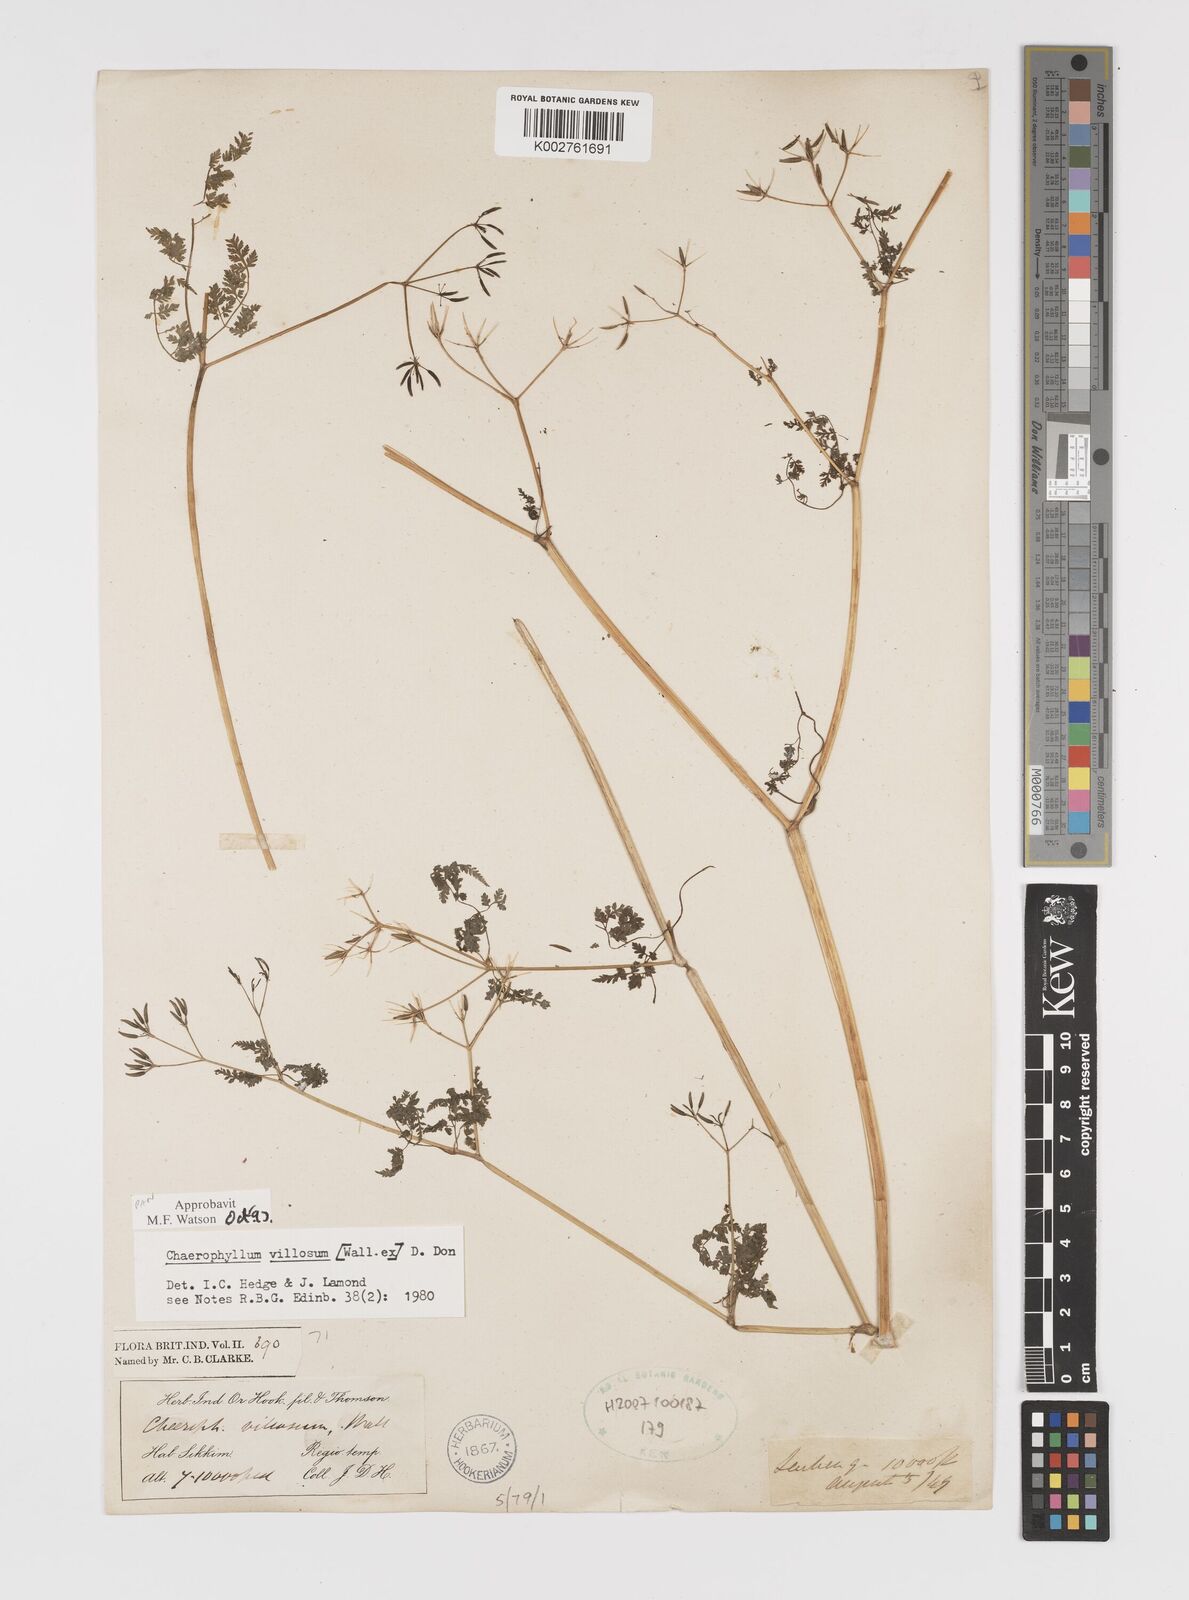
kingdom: Plantae
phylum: Tracheophyta
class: Magnoliopsida
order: Apiales
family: Apiaceae
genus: Chaerophyllum
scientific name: Chaerophyllum villosum
